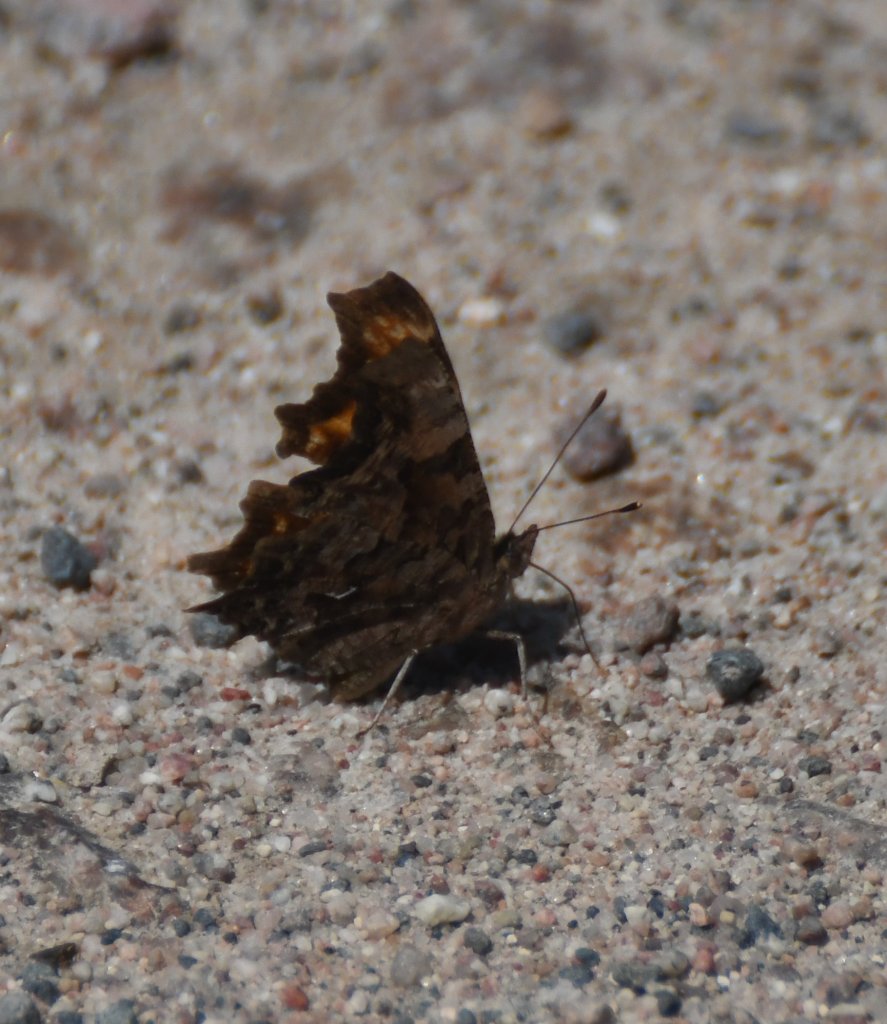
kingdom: Animalia
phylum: Arthropoda
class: Insecta
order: Lepidoptera
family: Nymphalidae
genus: Polygonia
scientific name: Polygonia faunus
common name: Green Comma
